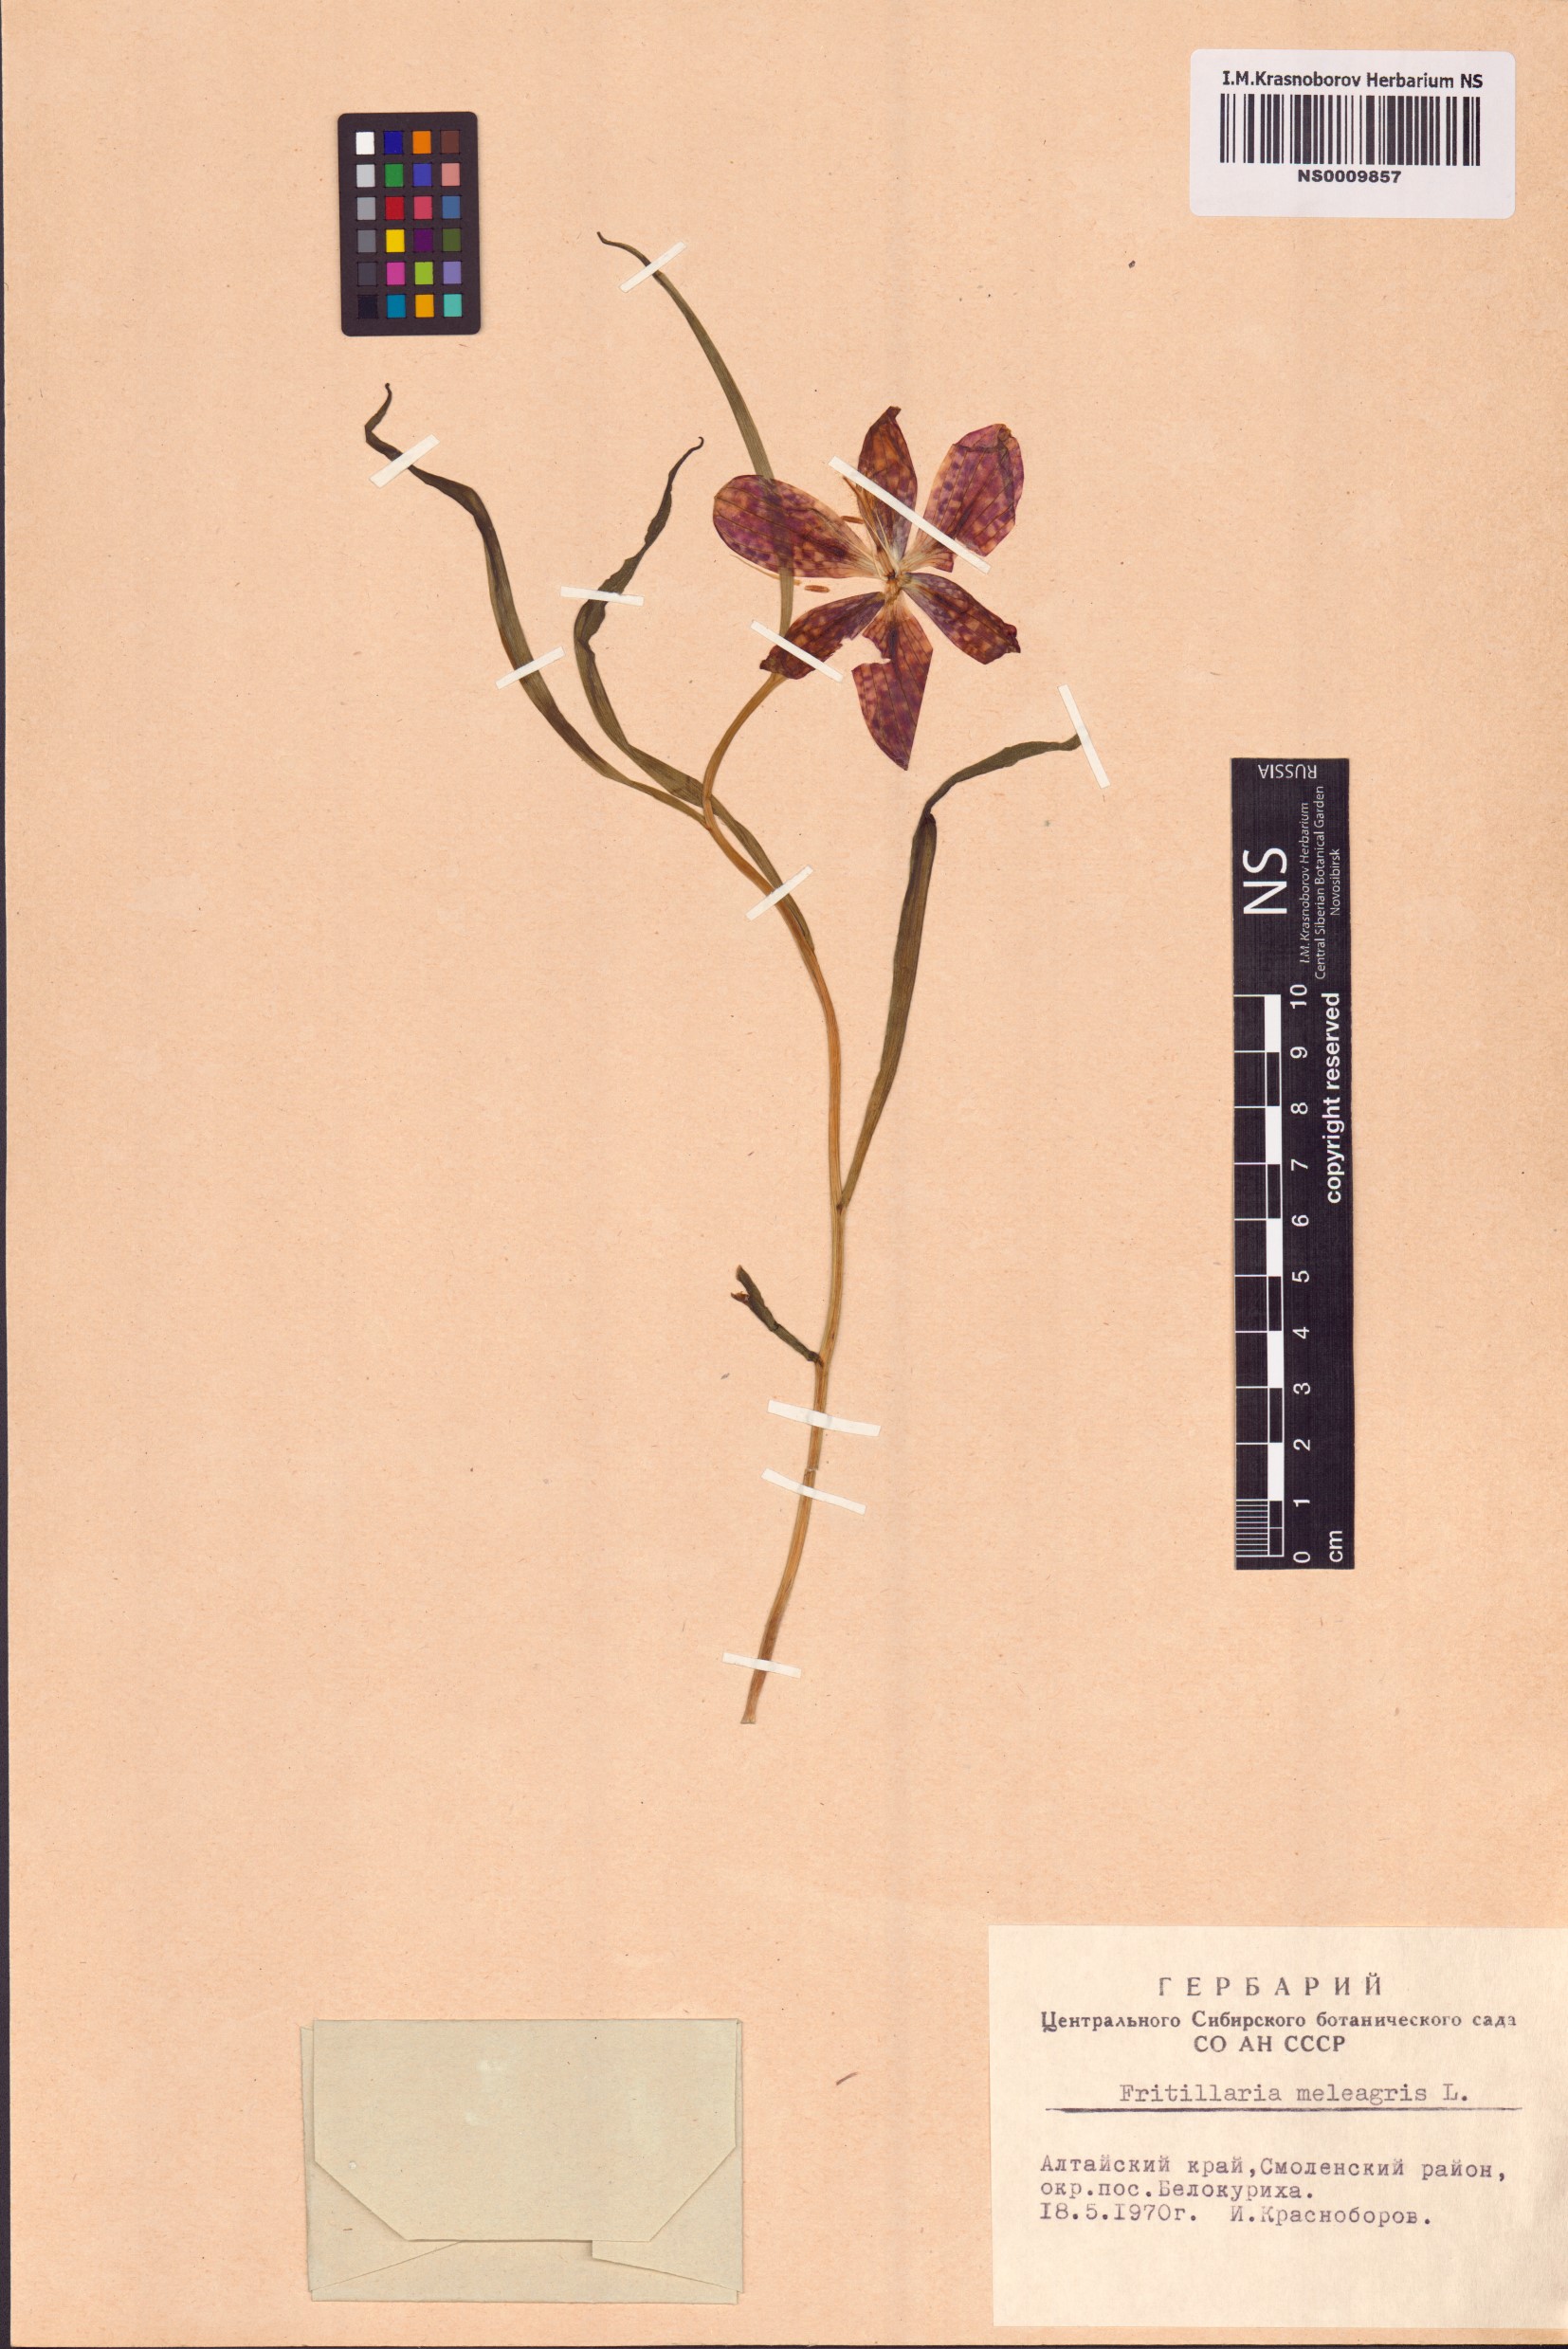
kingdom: Plantae
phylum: Tracheophyta
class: Liliopsida
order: Liliales
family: Liliaceae
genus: Fritillaria
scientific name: Fritillaria meleagris
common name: Fritillary
